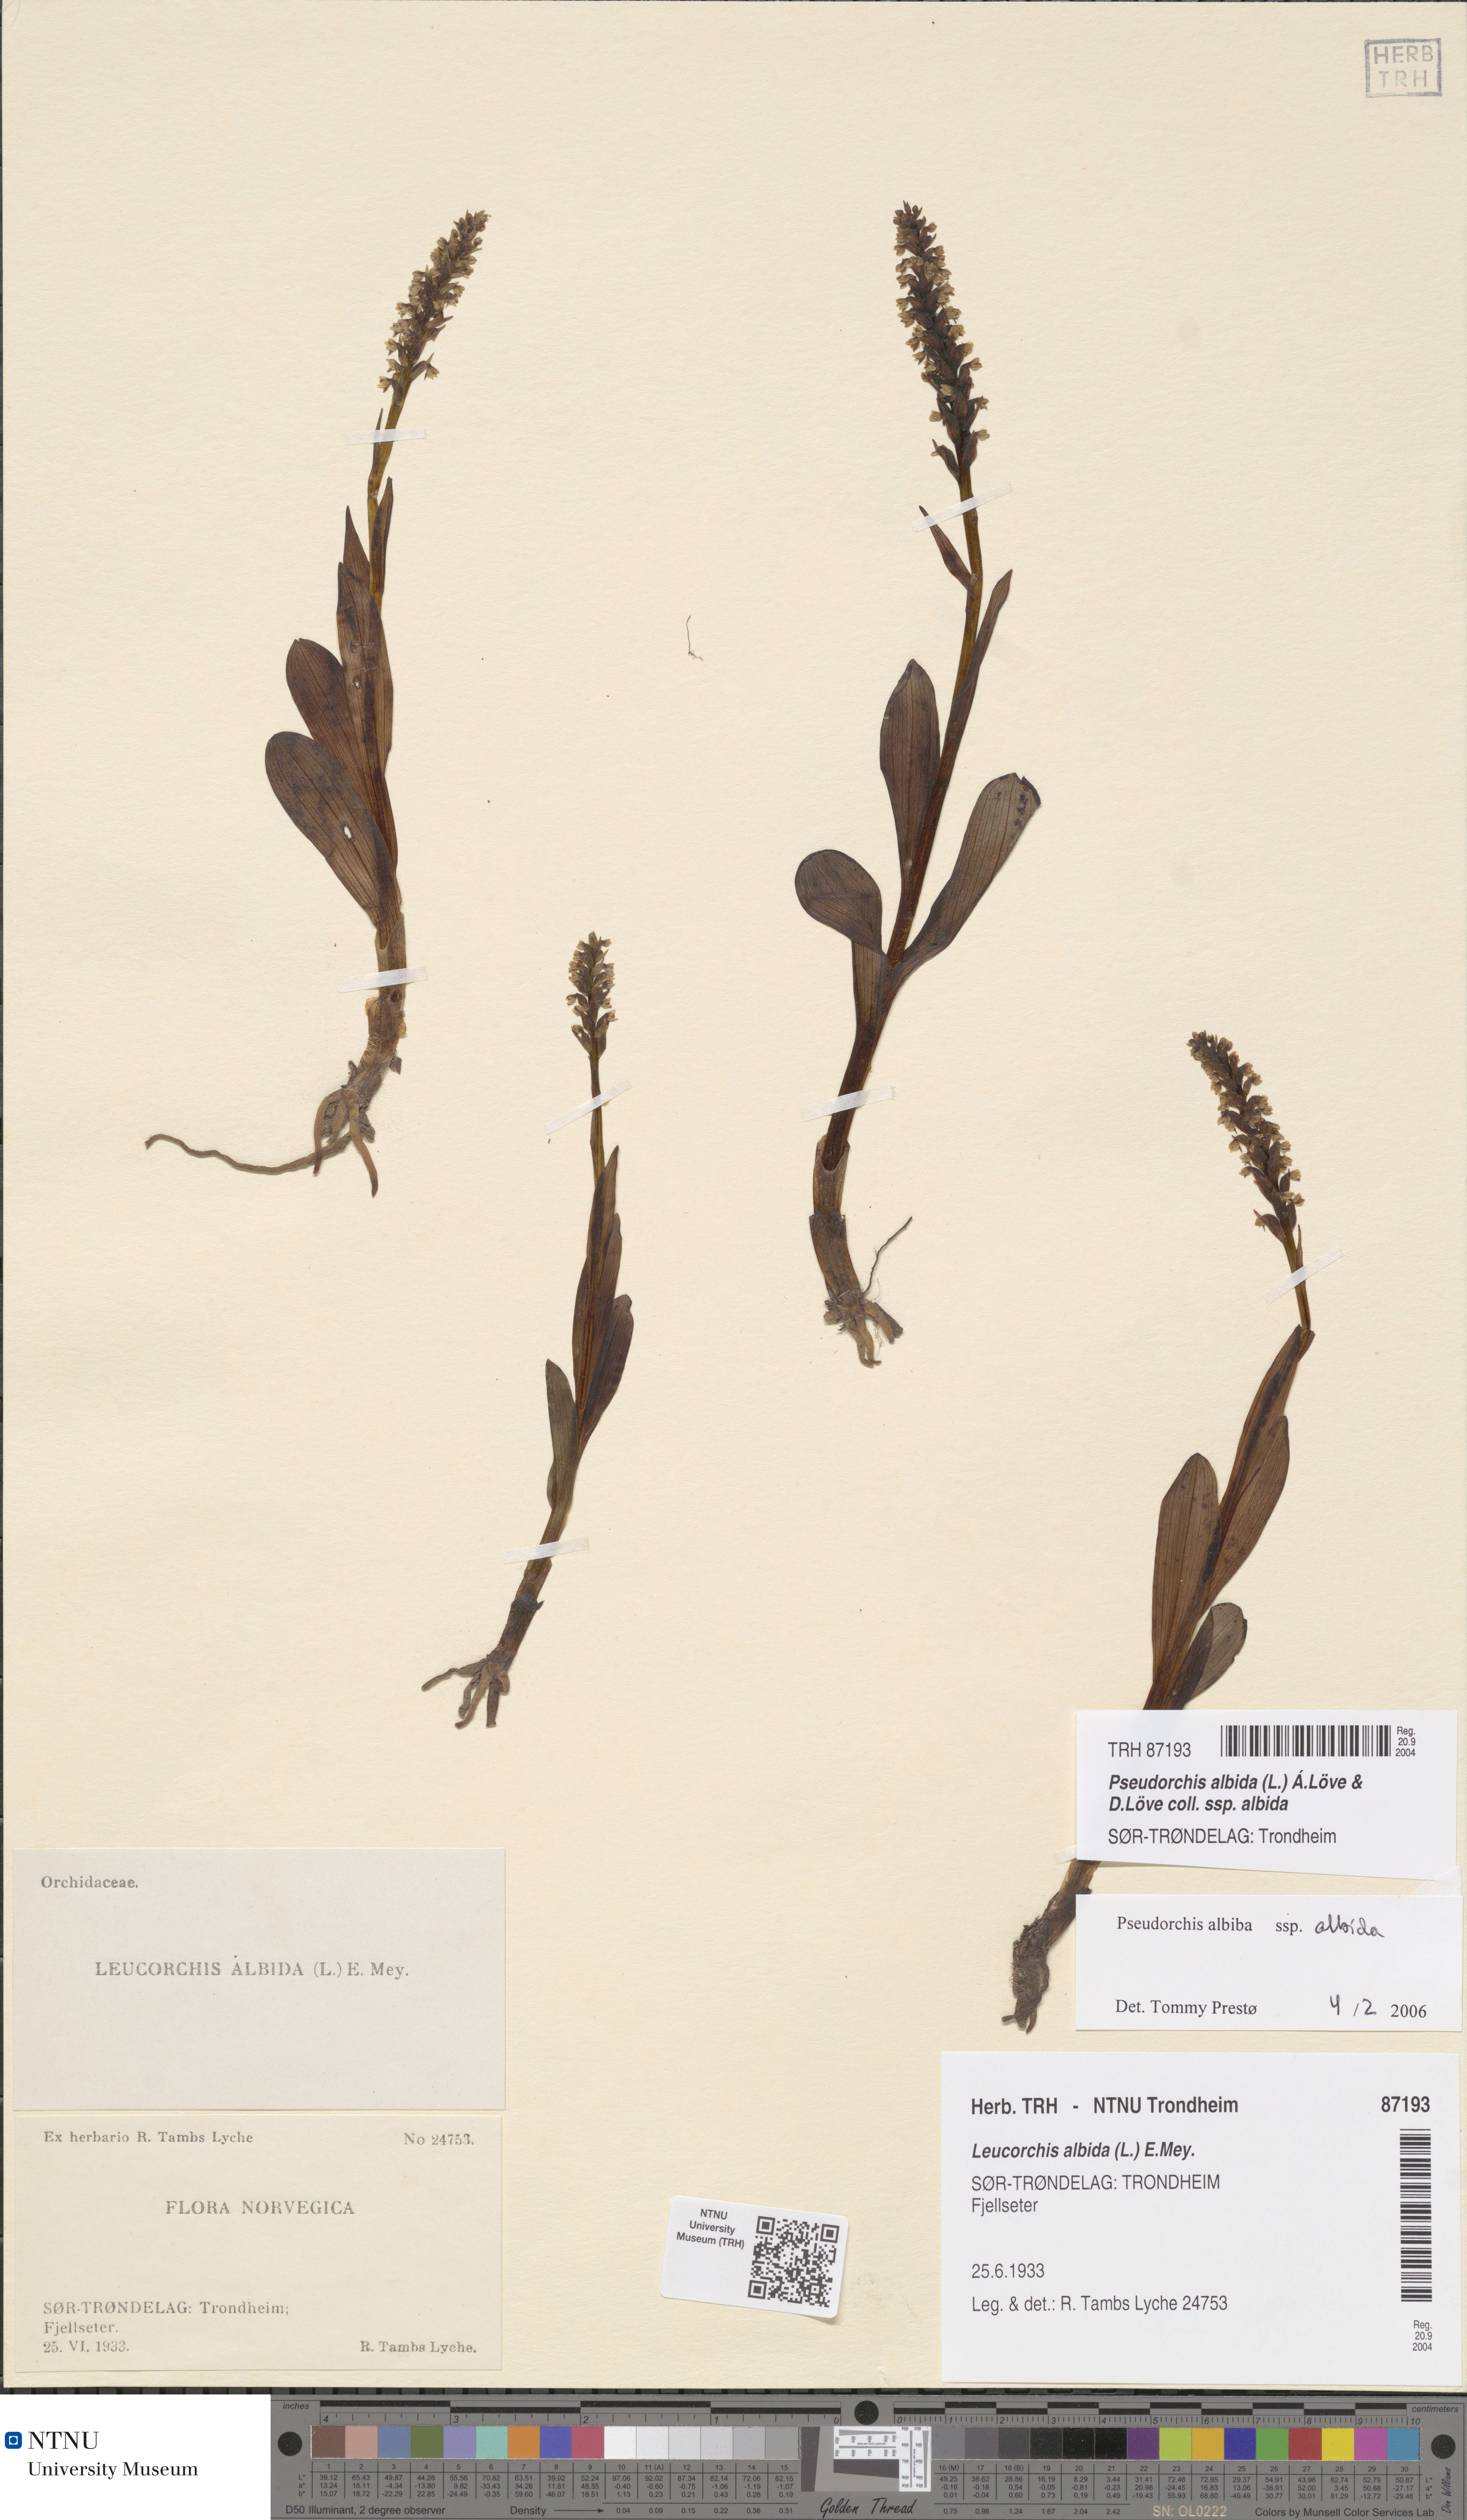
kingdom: Plantae
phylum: Tracheophyta
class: Liliopsida
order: Asparagales
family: Orchidaceae
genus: Pseudorchis
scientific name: Pseudorchis albida
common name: Small-white orchid
